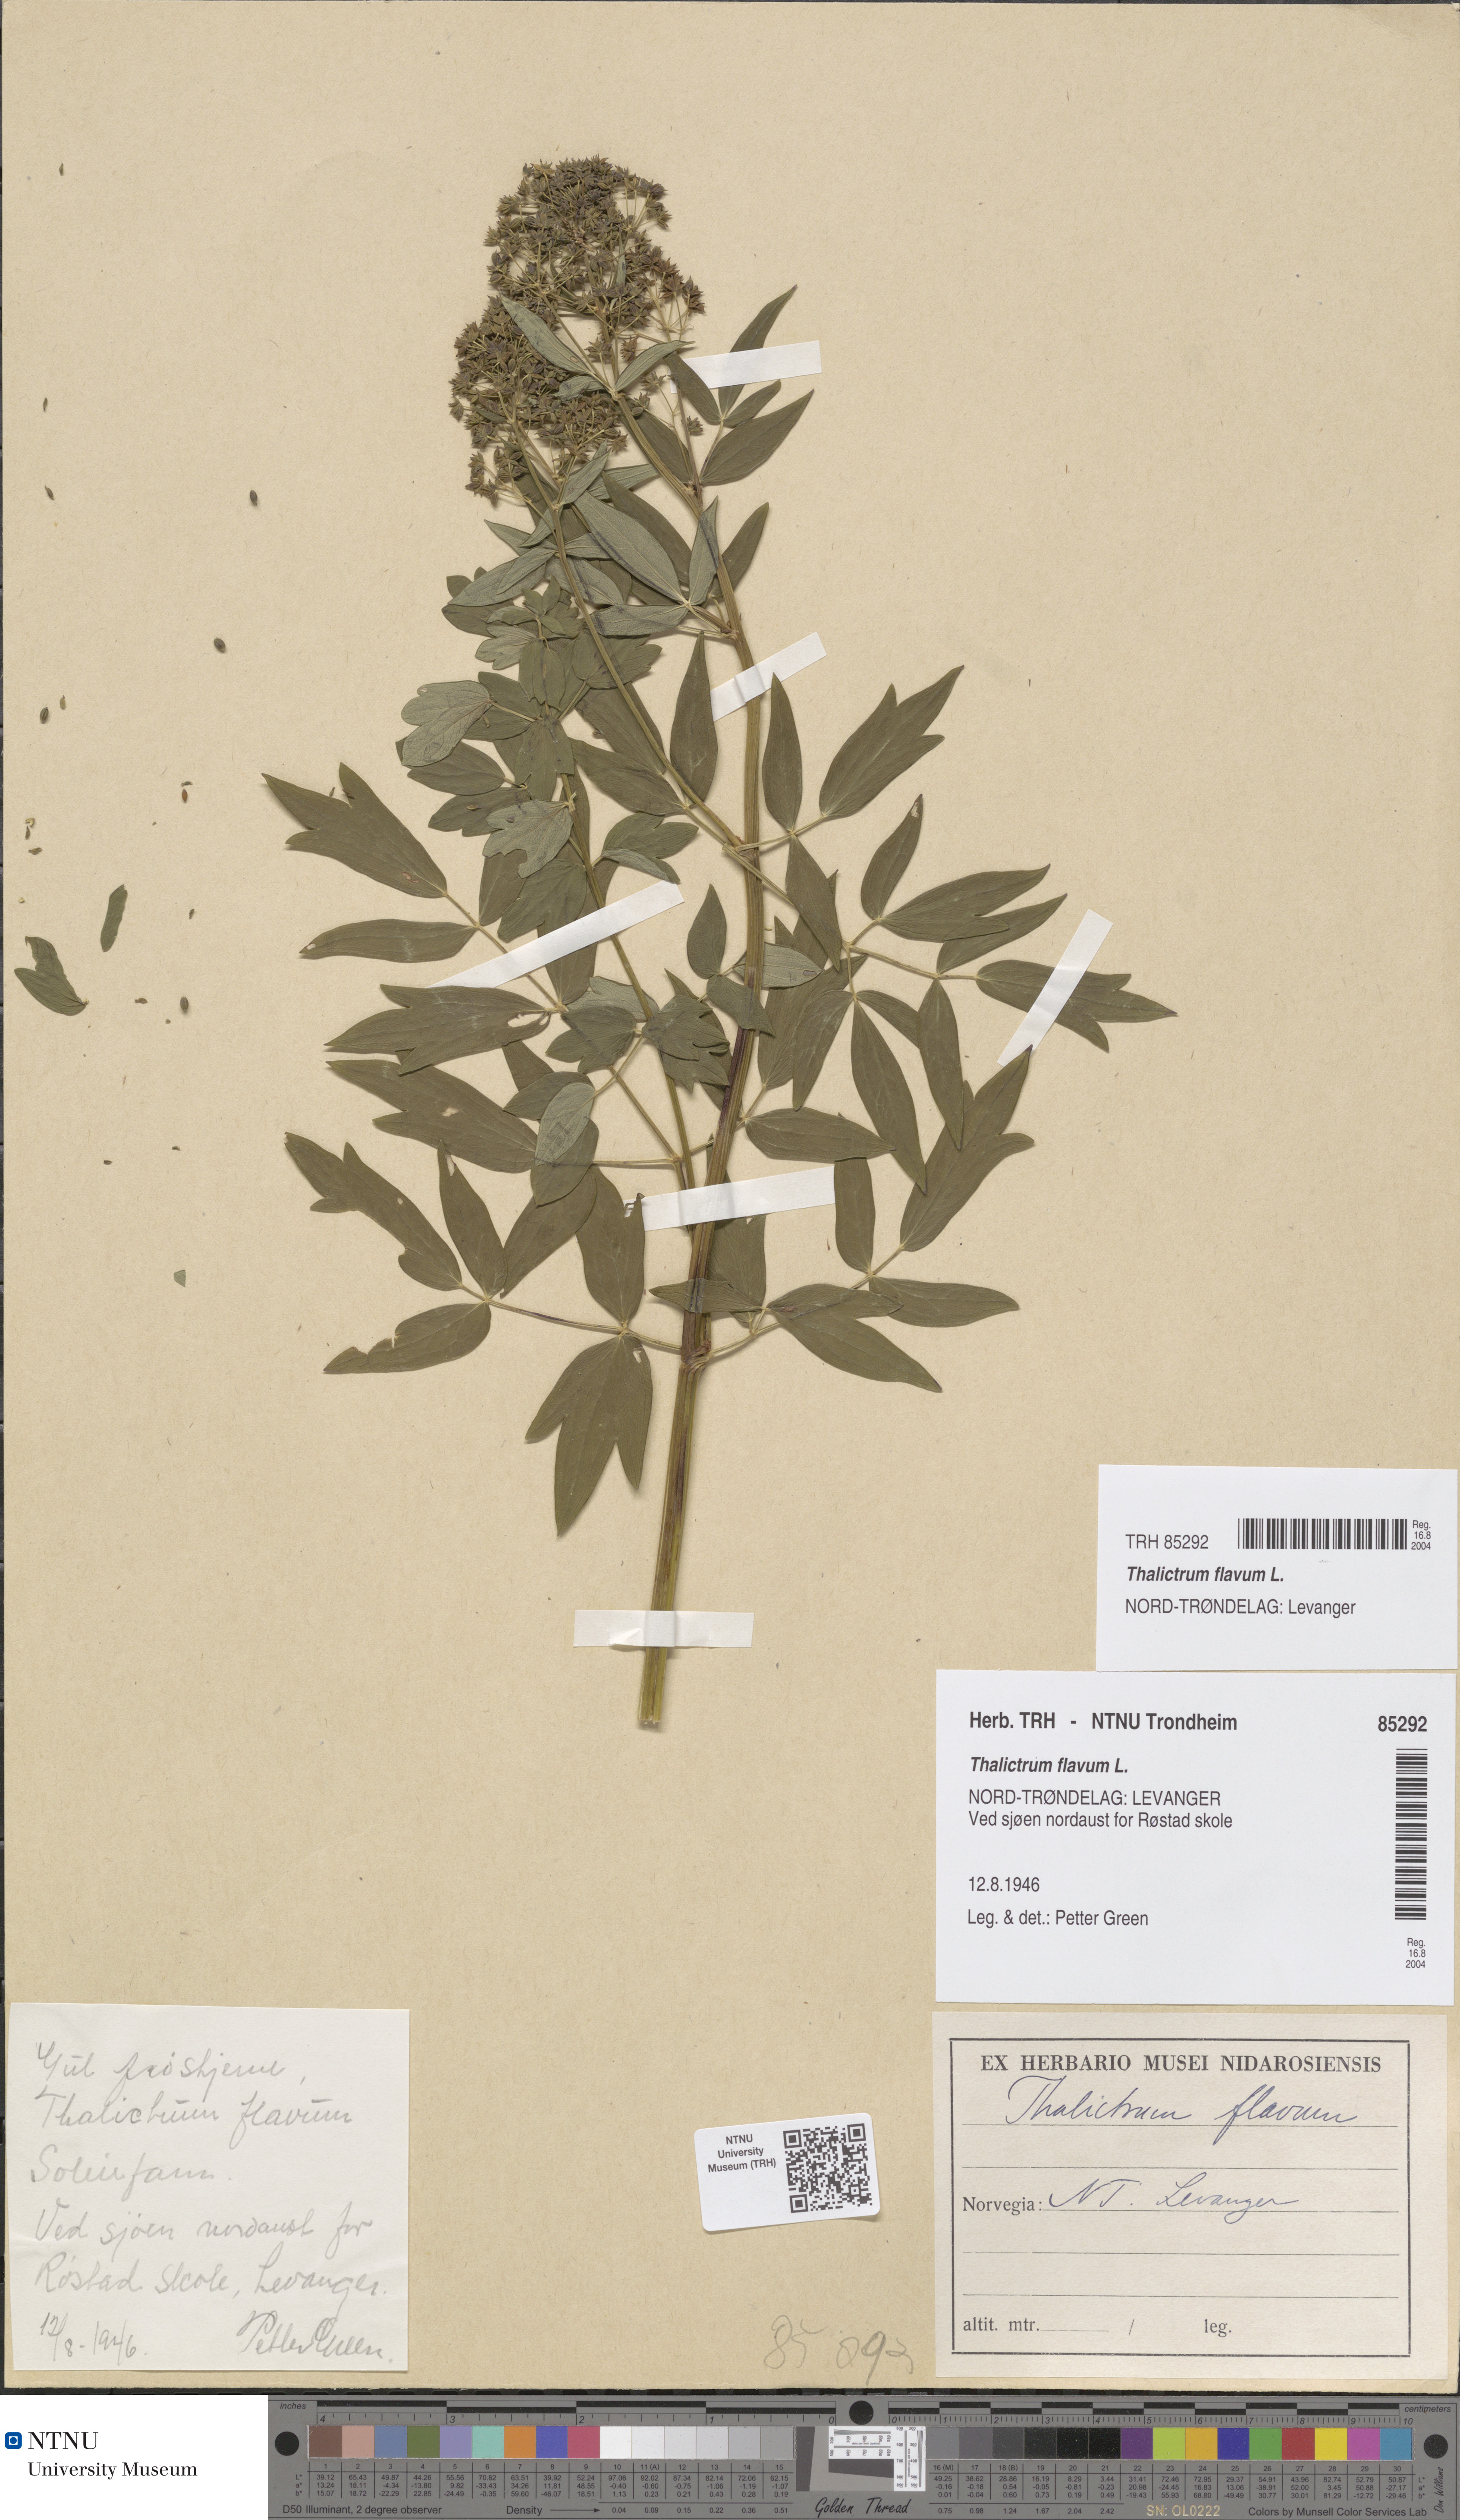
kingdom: Plantae
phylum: Tracheophyta
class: Magnoliopsida
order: Ranunculales
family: Ranunculaceae
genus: Thalictrum
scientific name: Thalictrum flavum
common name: Common meadow-rue
